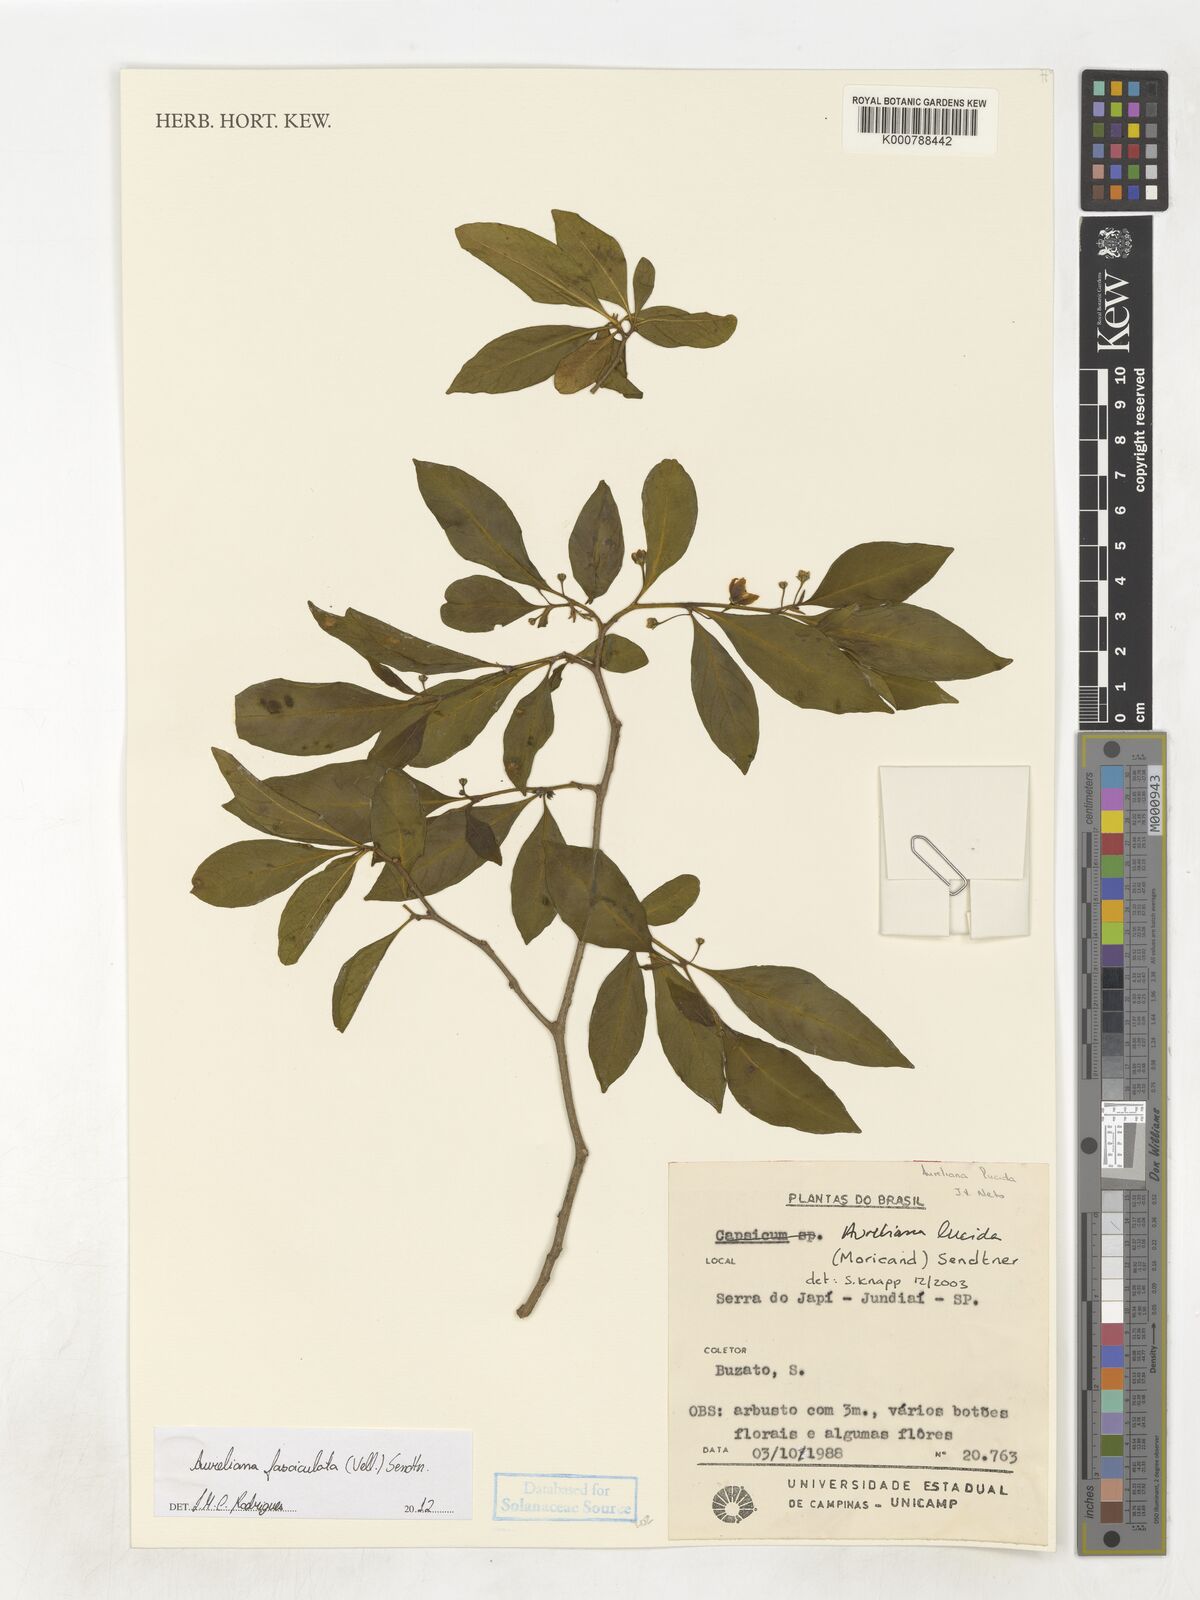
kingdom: Plantae
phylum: Tracheophyta
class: Magnoliopsida
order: Solanales
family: Solanaceae
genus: Athenaea
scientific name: Athenaea fasciculata
